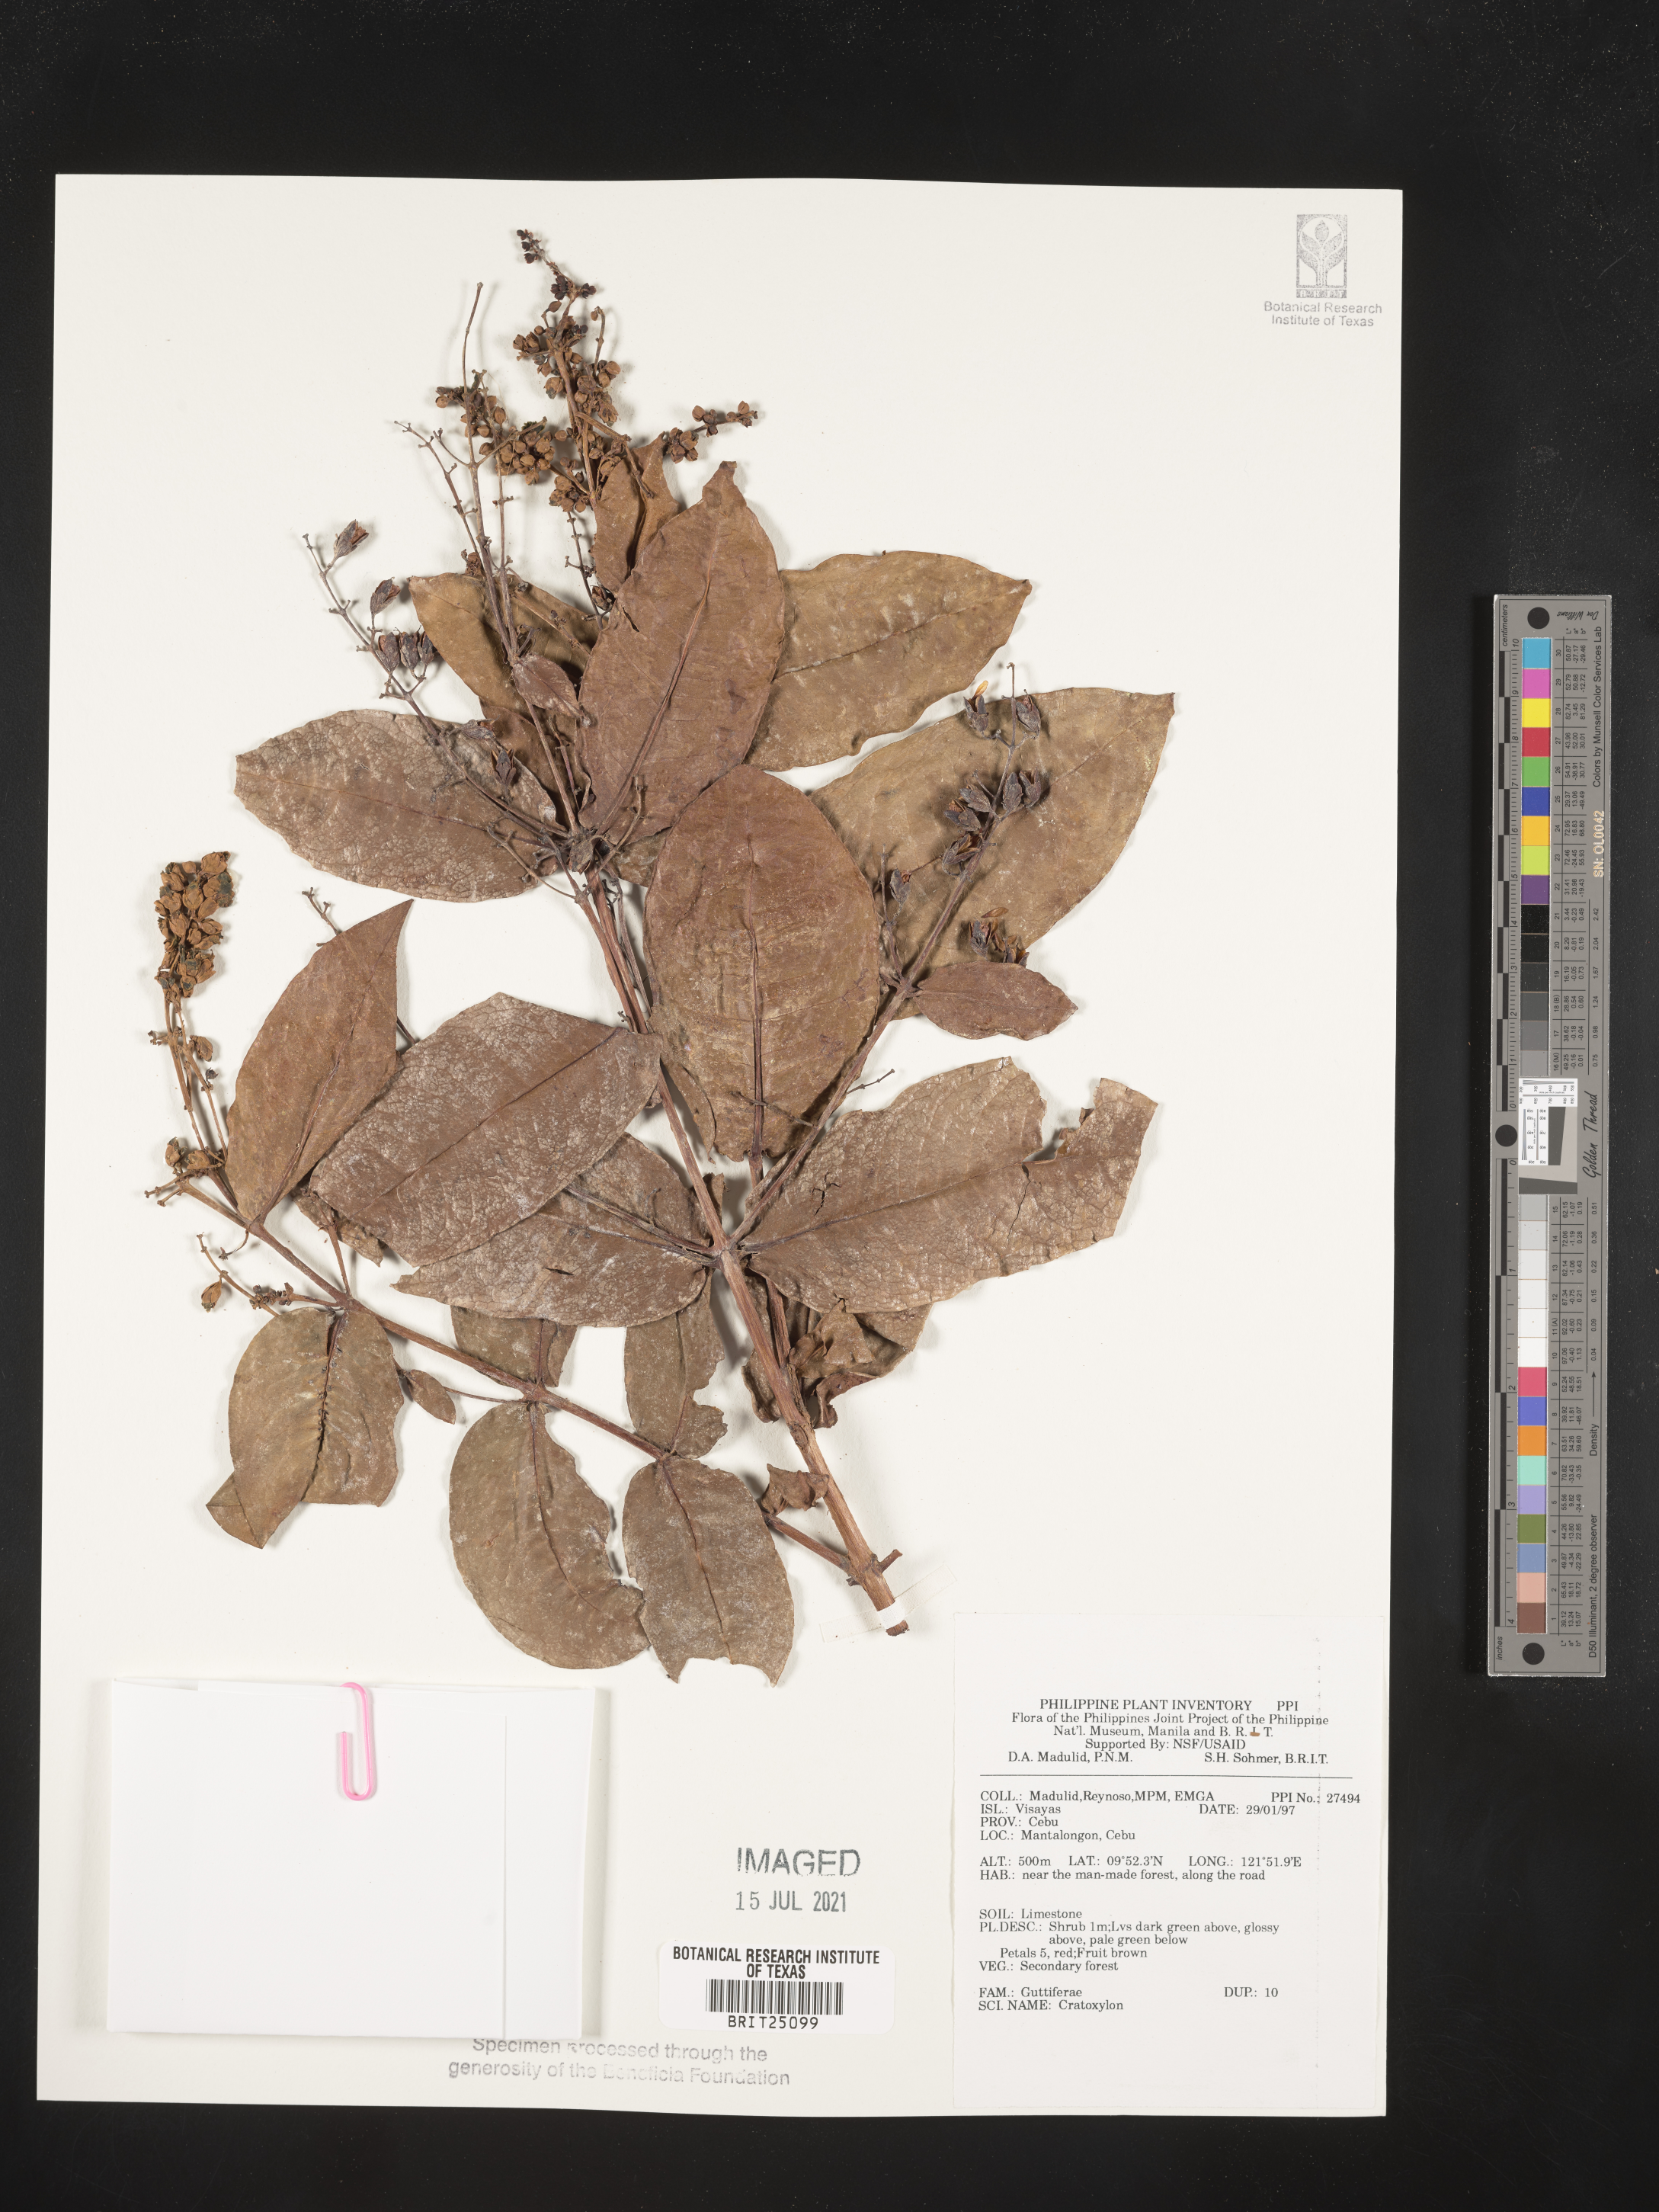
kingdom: Plantae
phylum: Tracheophyta
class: Magnoliopsida
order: Malpighiales
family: Hypericaceae
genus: Cratoxylum
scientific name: Cratoxylum
